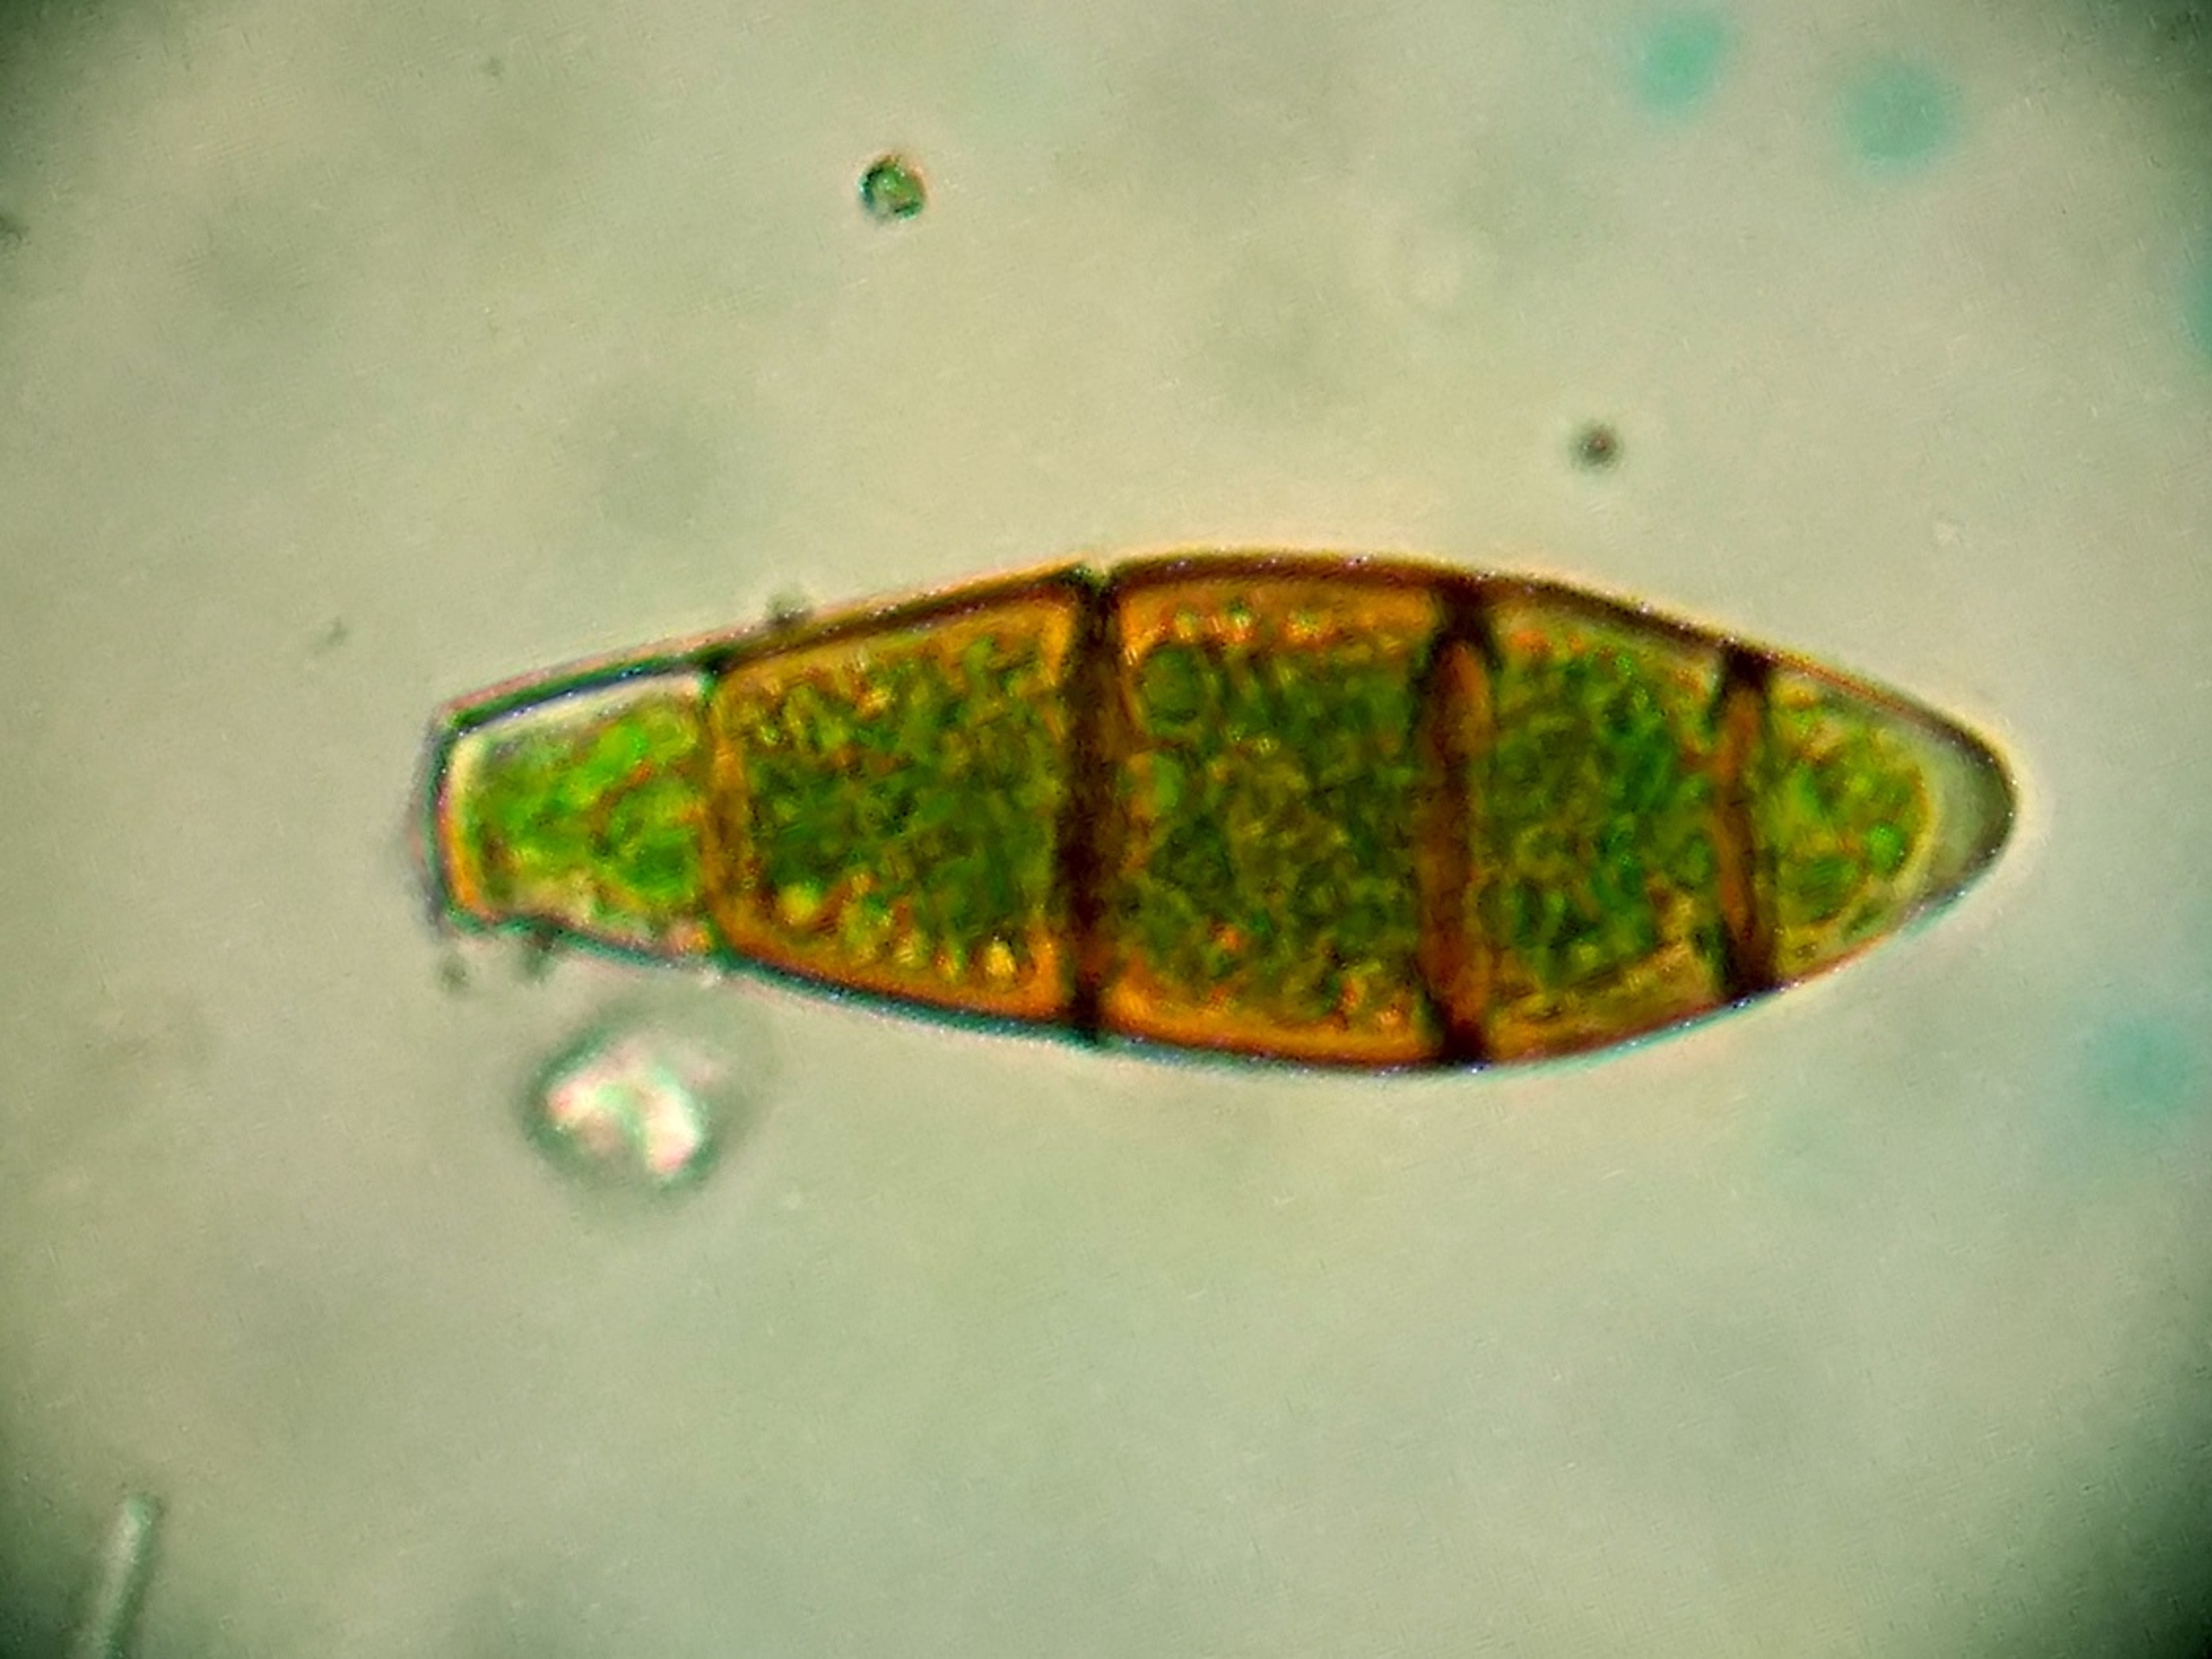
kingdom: Plantae
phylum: Bryophyta
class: Bryopsida
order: Orthotrichales
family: Orthotrichaceae
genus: Zygodon
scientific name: Zygodon rupestris
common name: Almindelig køllemos
